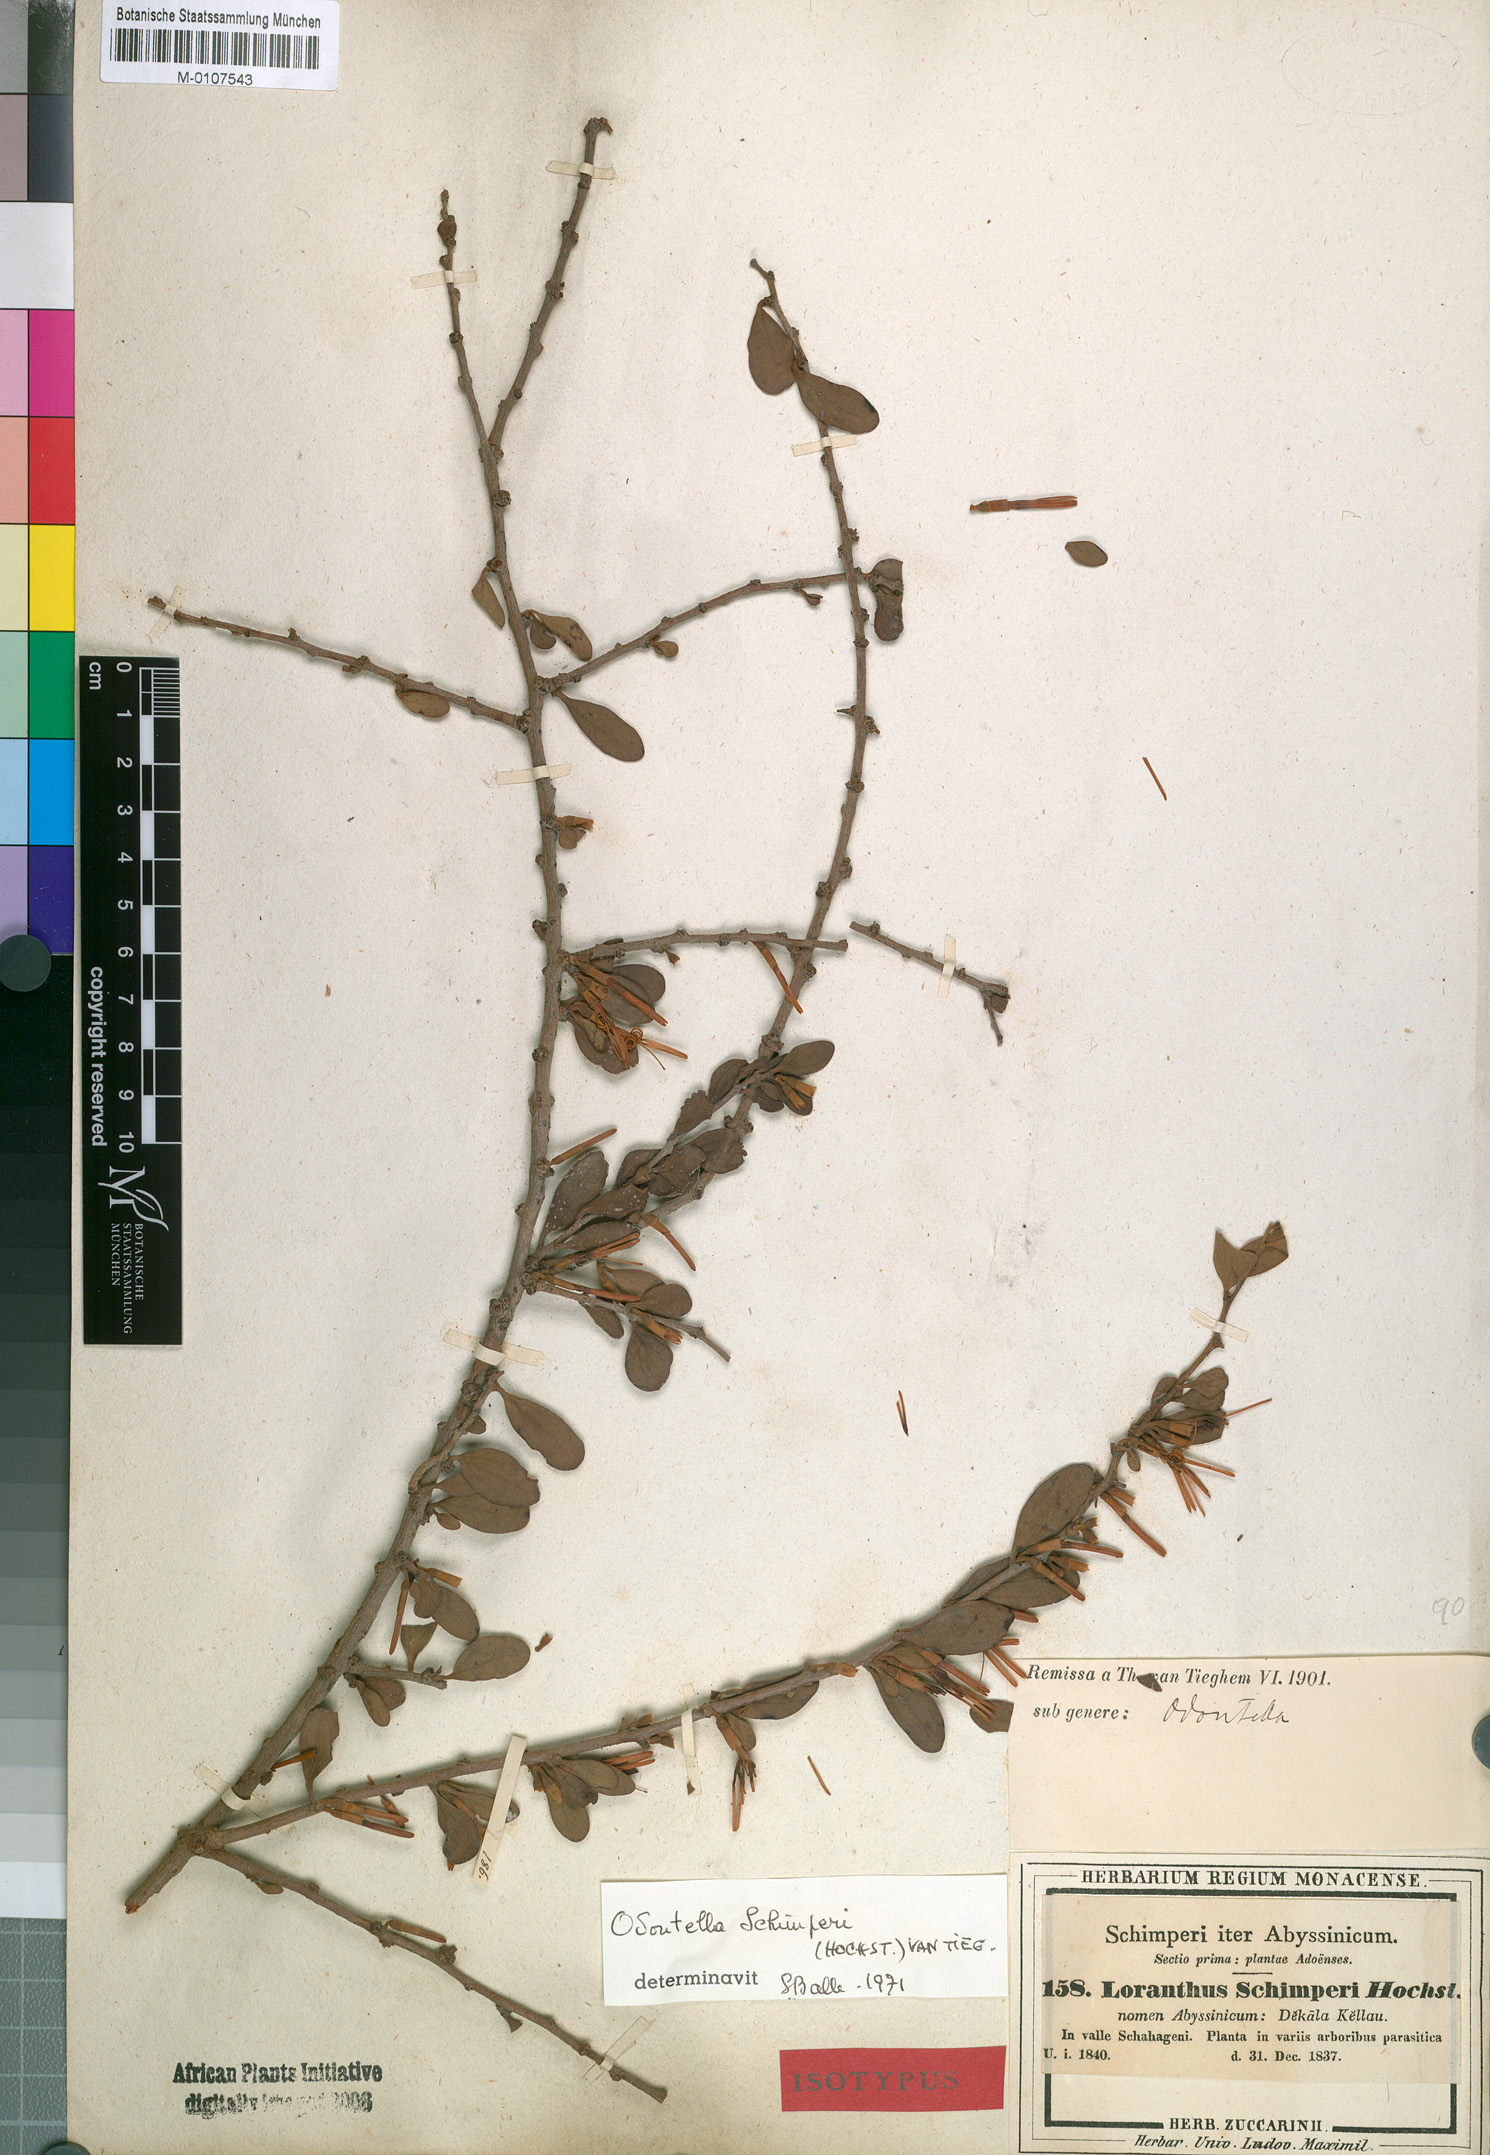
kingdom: Plantae
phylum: Tracheophyta
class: Magnoliopsida
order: Santalales
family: Loranthaceae
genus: Loranthella
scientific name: Loranthella
